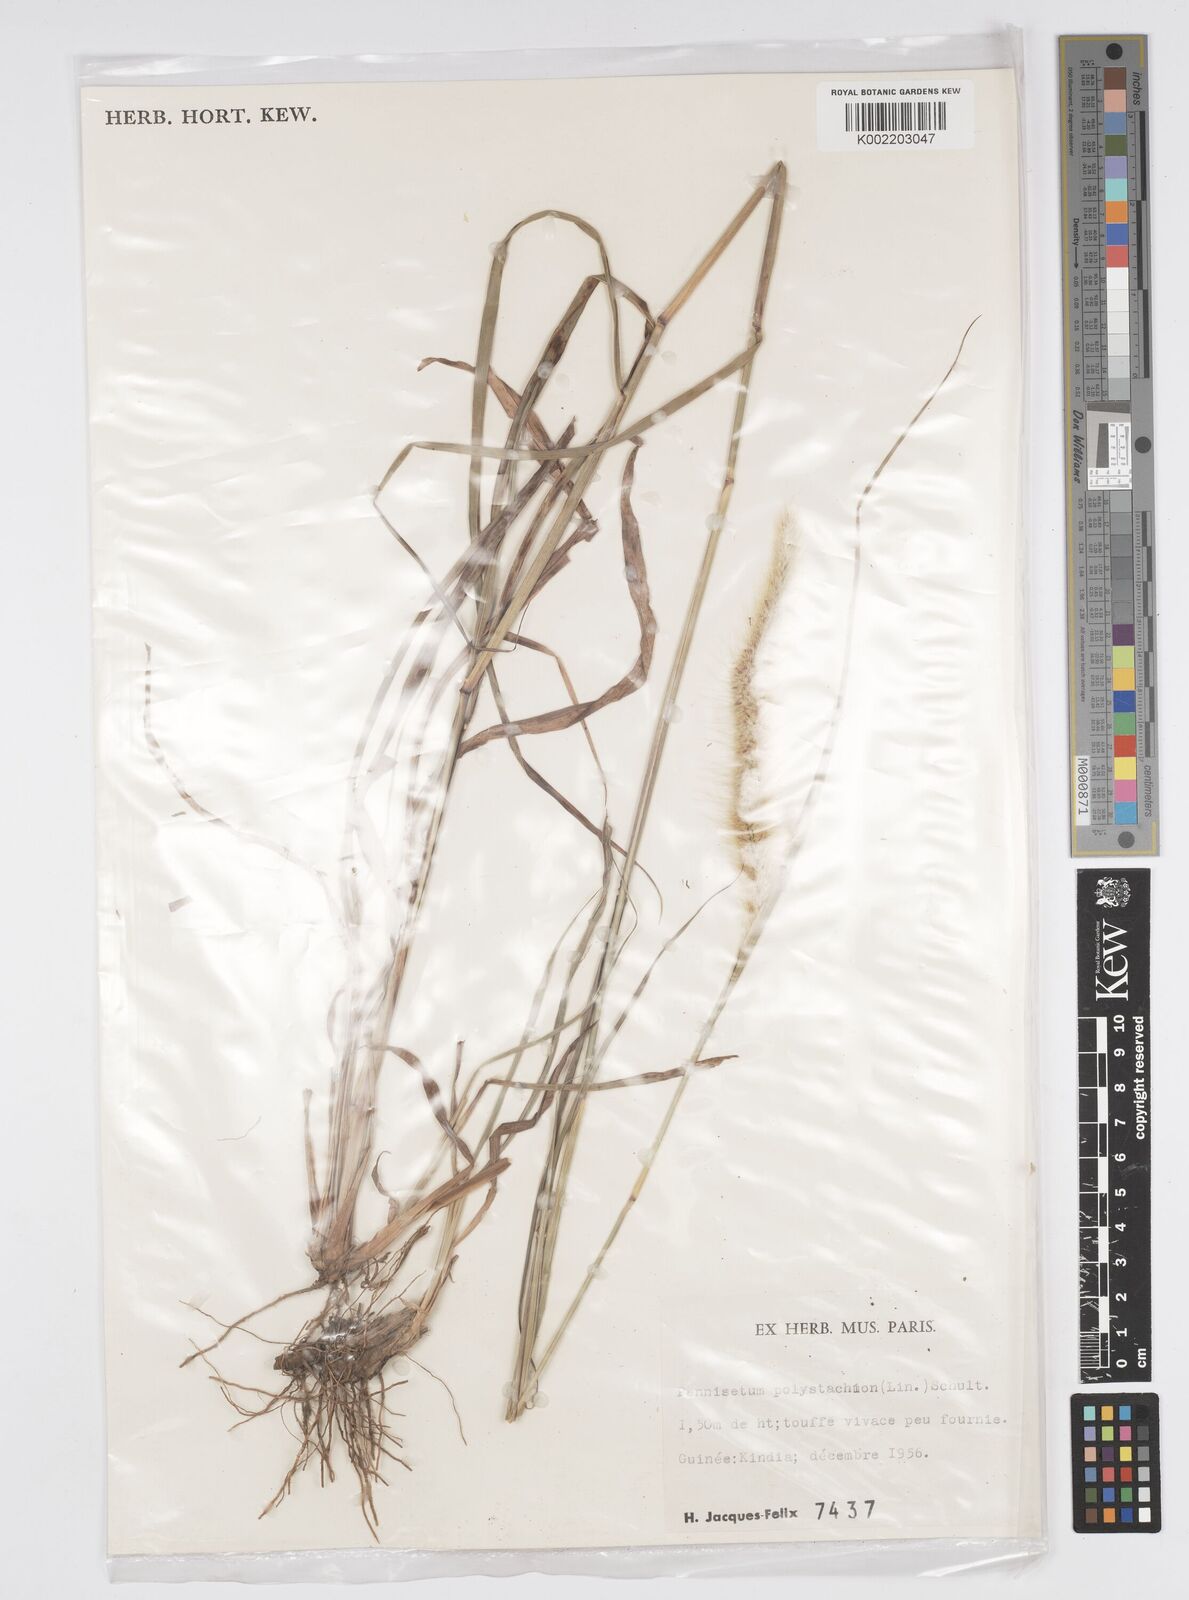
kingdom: Plantae
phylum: Tracheophyta
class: Liliopsida
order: Poales
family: Poaceae
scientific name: Poaceae
